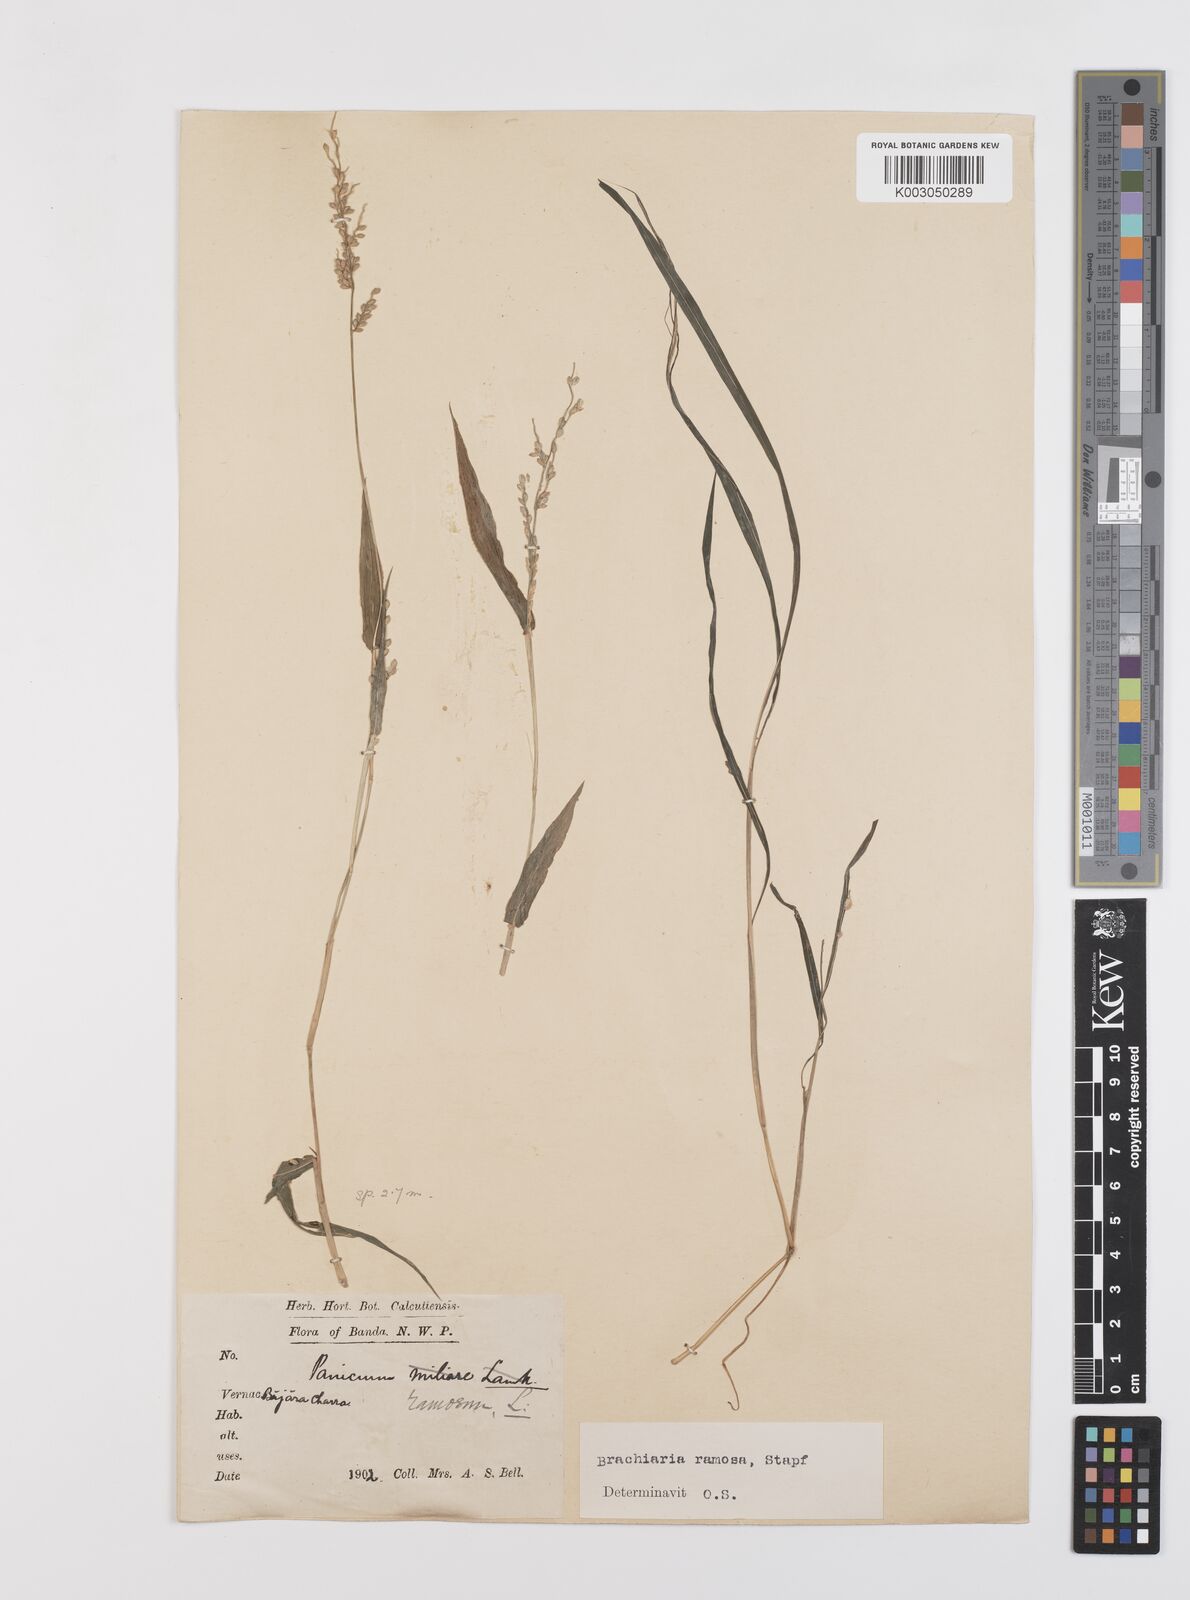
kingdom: Plantae
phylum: Tracheophyta
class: Liliopsida
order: Poales
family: Poaceae
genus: Urochloa
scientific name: Urochloa ramosa
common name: Browntop millet
